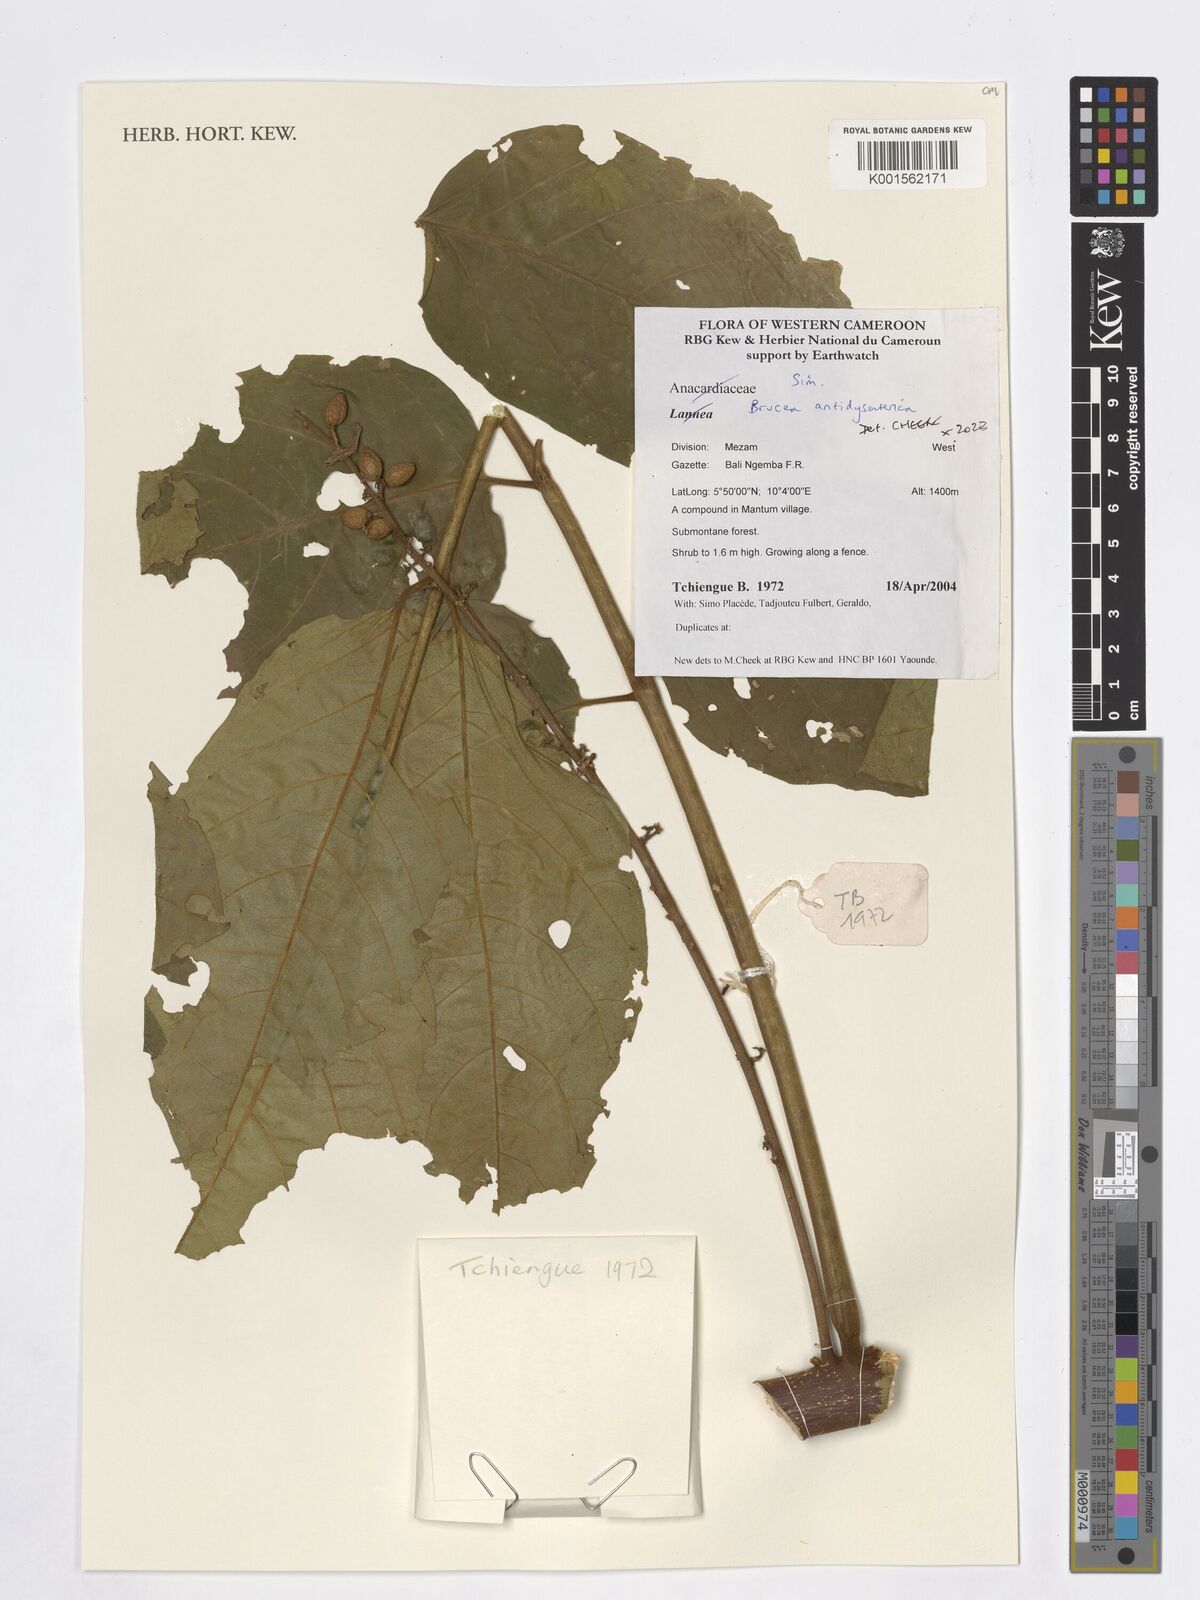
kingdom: Plantae
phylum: Tracheophyta
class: Magnoliopsida
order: Sapindales
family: Simaroubaceae
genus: Brucea
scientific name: Brucea antidysenterica
